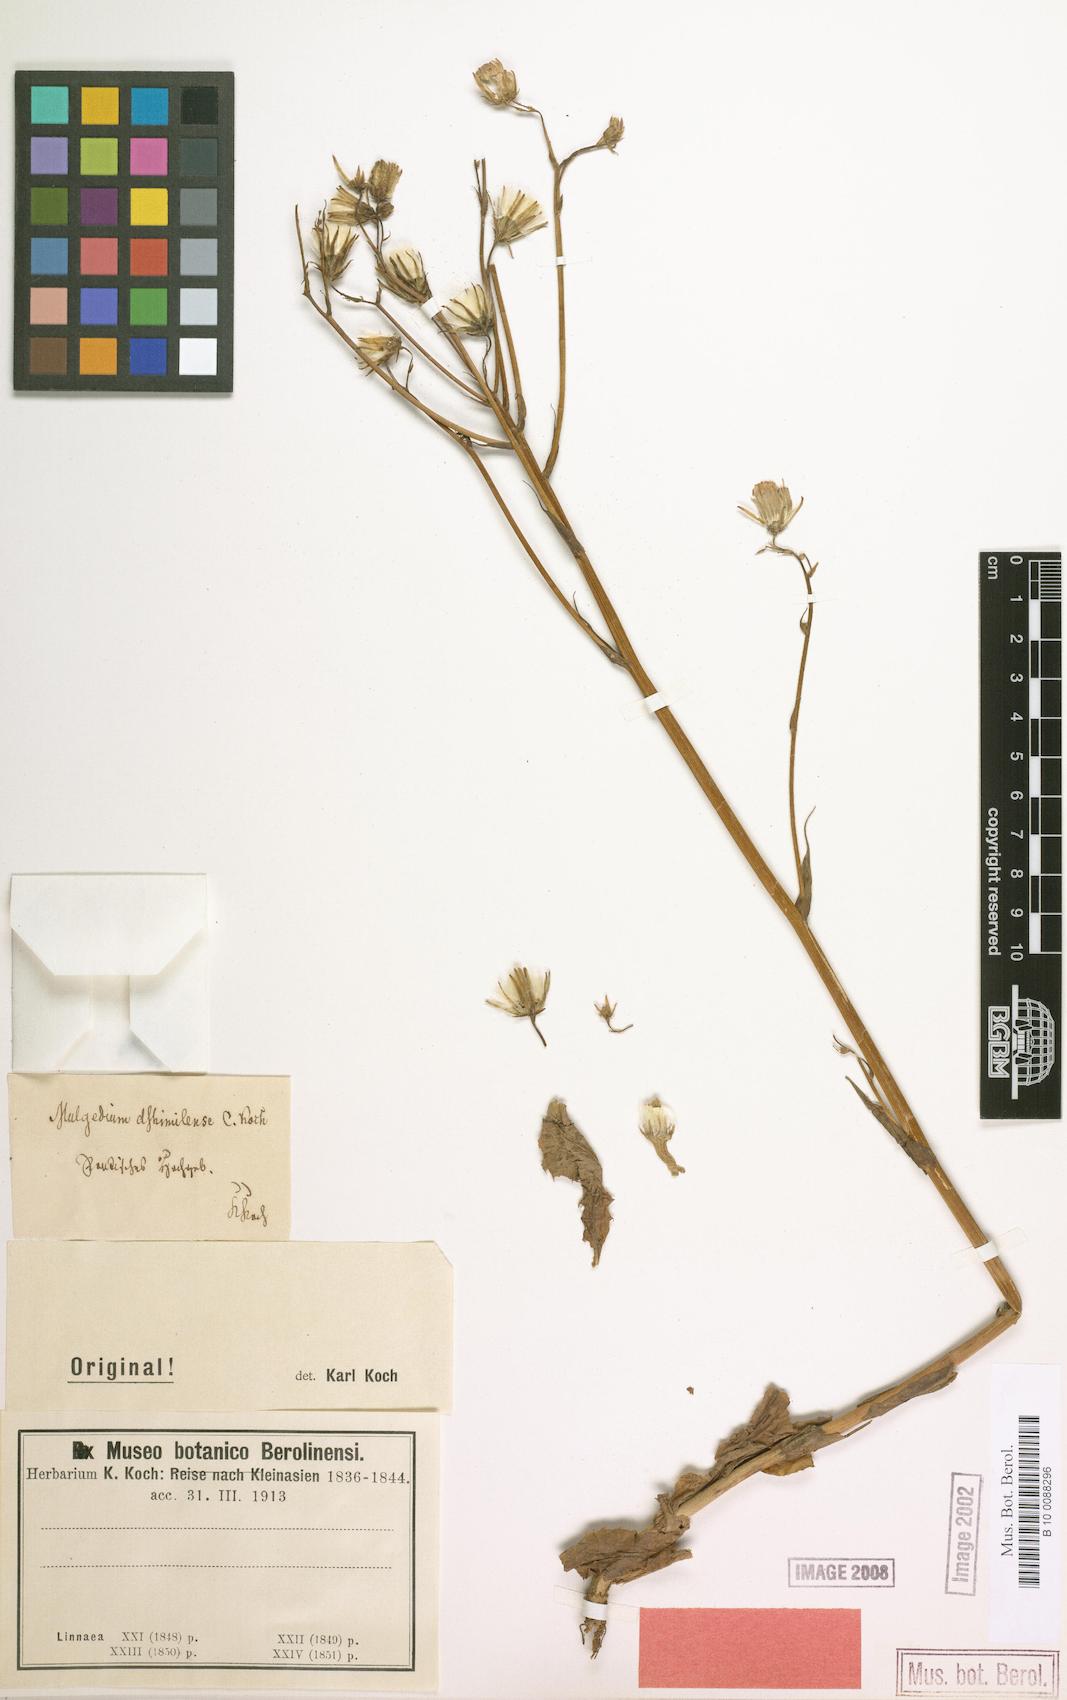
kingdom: Plantae
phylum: Tracheophyta
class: Magnoliopsida
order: Asterales
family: Asteraceae
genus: Lactuca
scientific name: Lactuca racemosa
